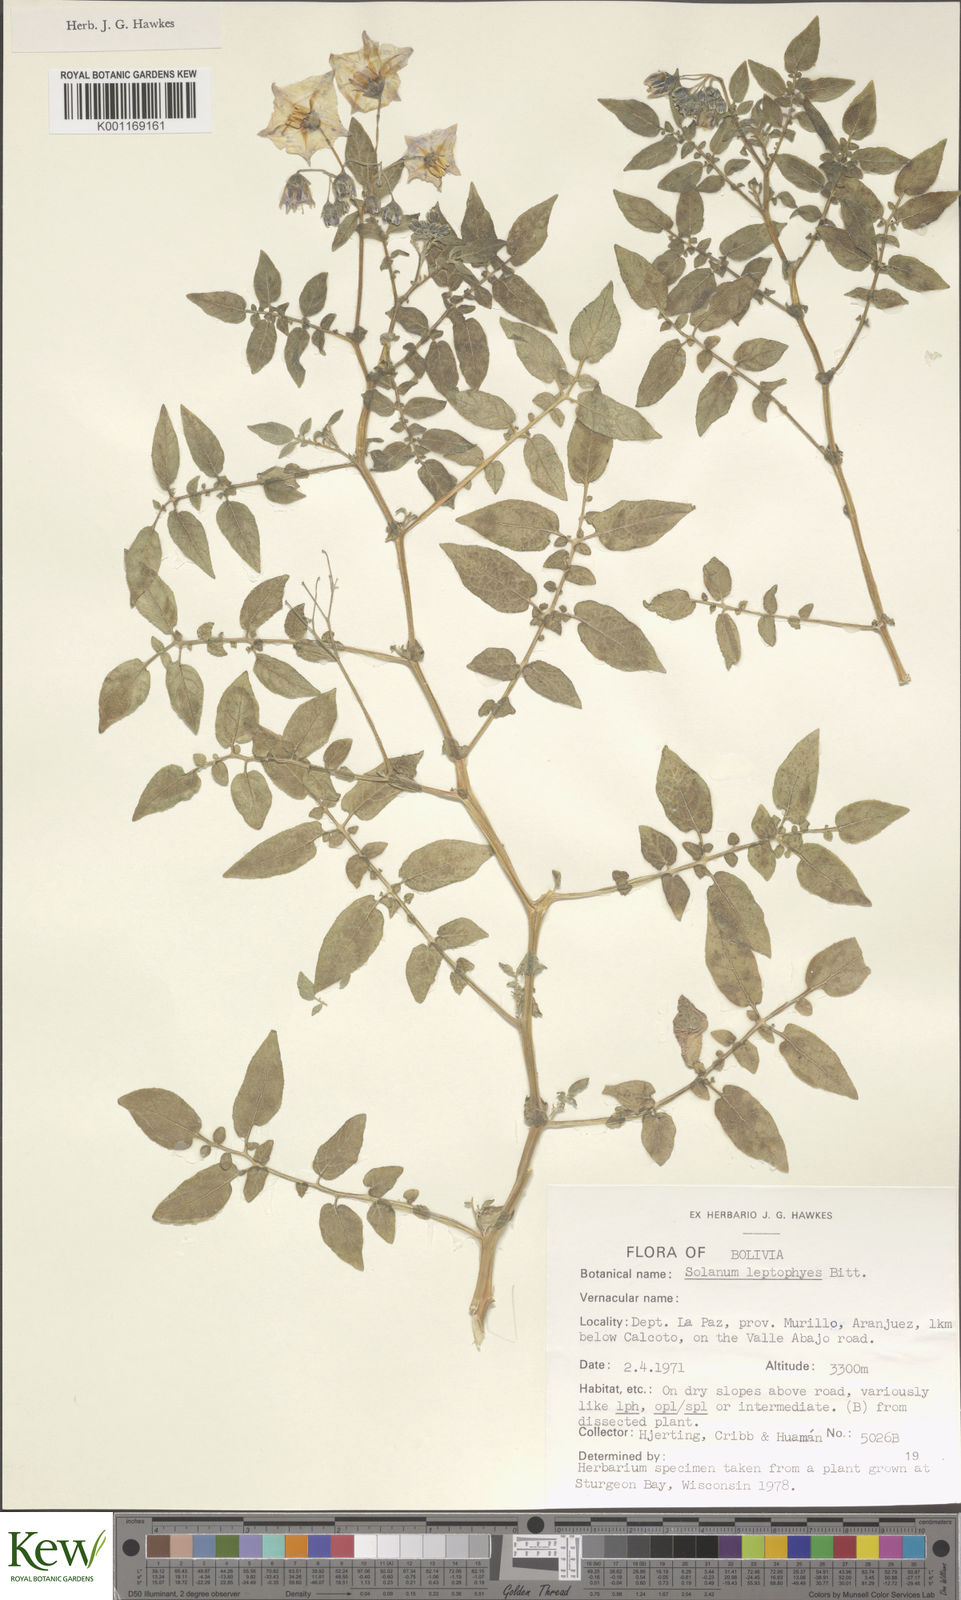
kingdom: Plantae
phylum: Tracheophyta
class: Magnoliopsida
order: Solanales
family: Solanaceae
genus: Solanum
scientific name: Solanum brevicaule
